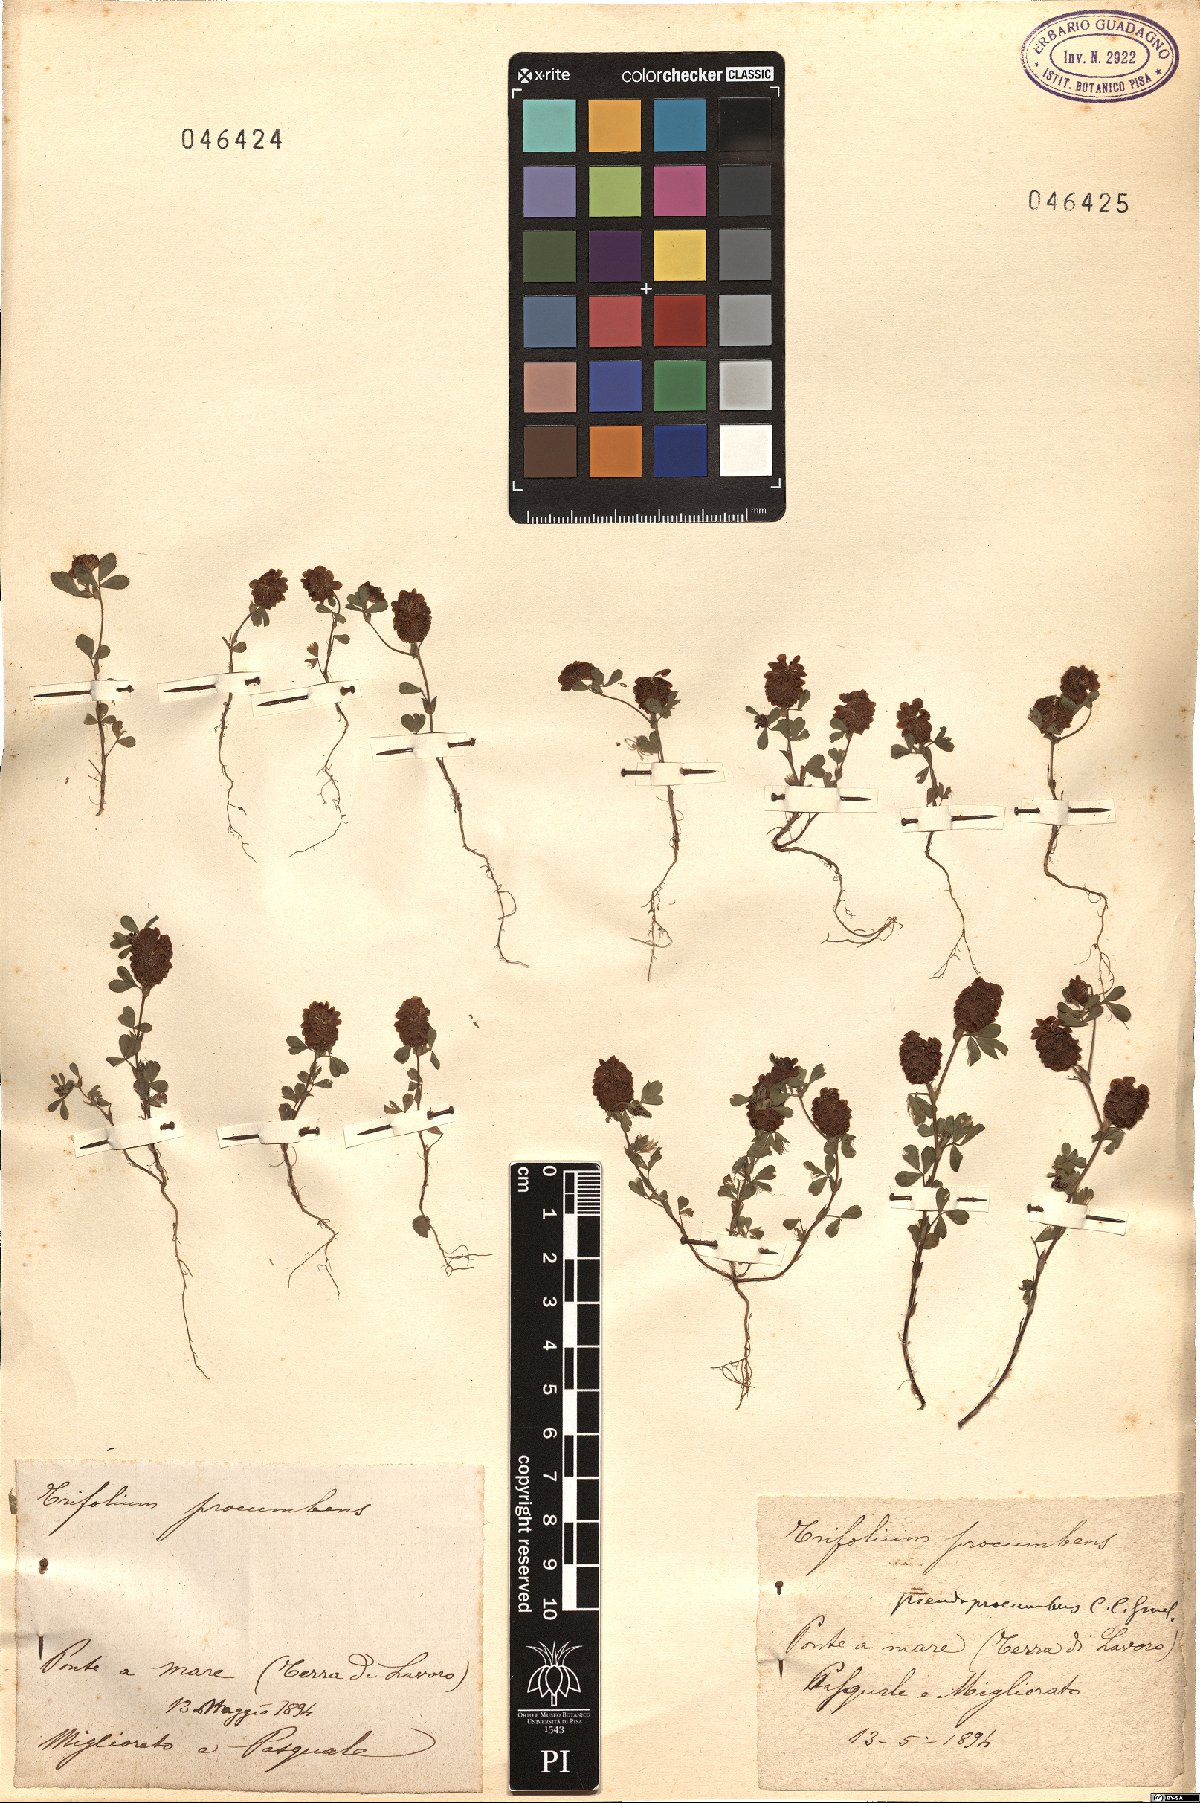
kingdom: Plantae
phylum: Tracheophyta
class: Magnoliopsida
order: Fabales
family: Fabaceae
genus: Trifolium
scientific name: Trifolium campestre
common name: Field clover
